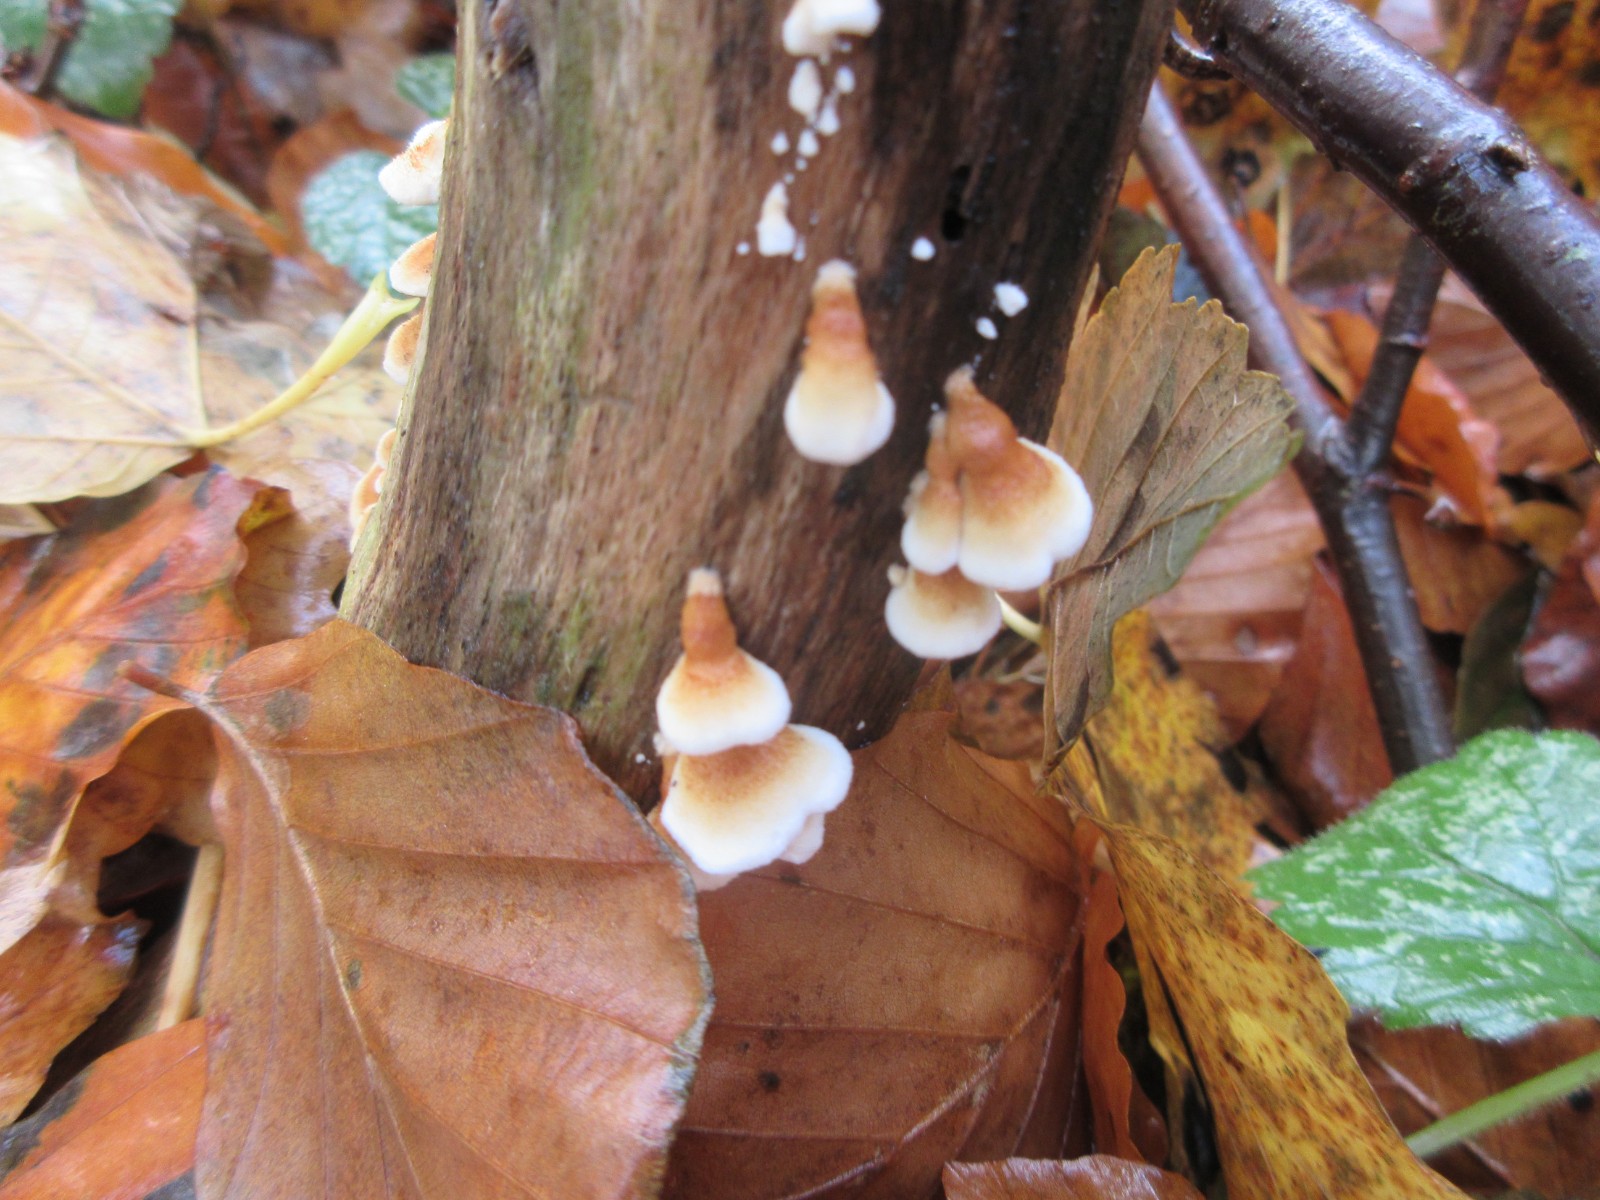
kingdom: Fungi
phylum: Basidiomycota
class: Agaricomycetes
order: Amylocorticiales
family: Amylocorticiaceae
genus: Plicaturopsis
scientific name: Plicaturopsis crispa
